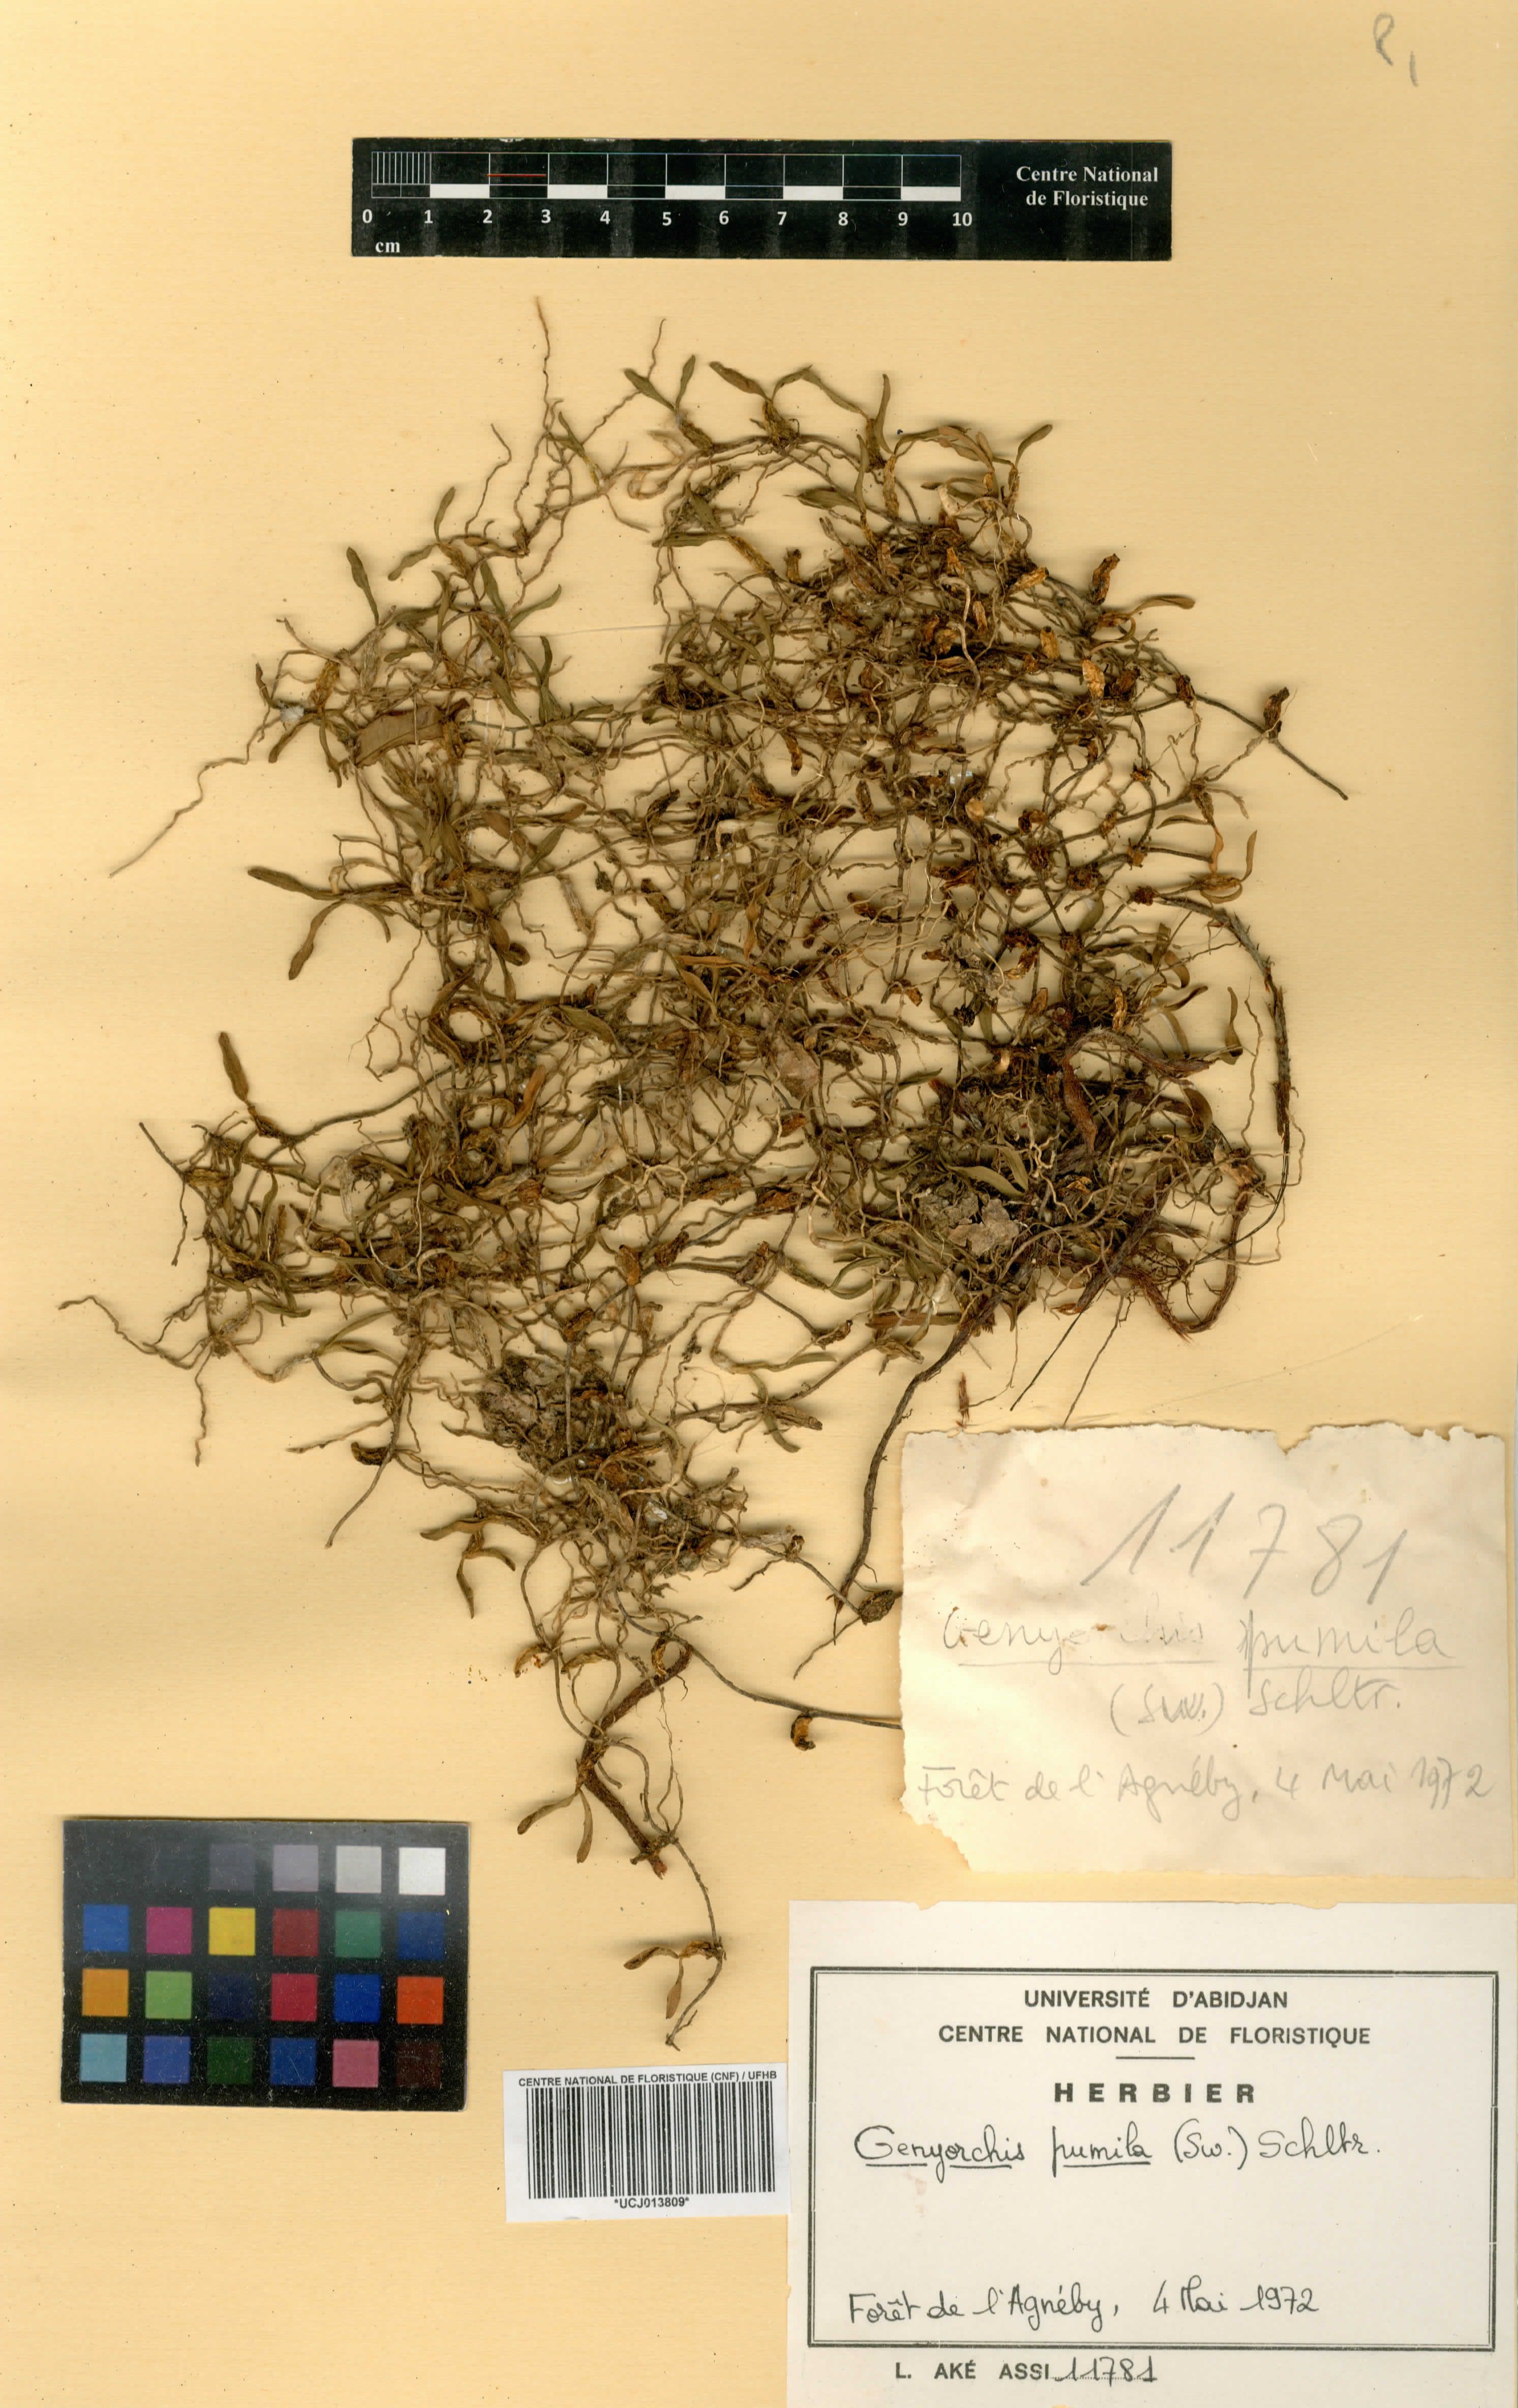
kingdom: Plantae
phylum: Tracheophyta
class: Liliopsida
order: Asparagales
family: Orchidaceae
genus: Bulbophyllum
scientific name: Bulbophyllum pumilum
